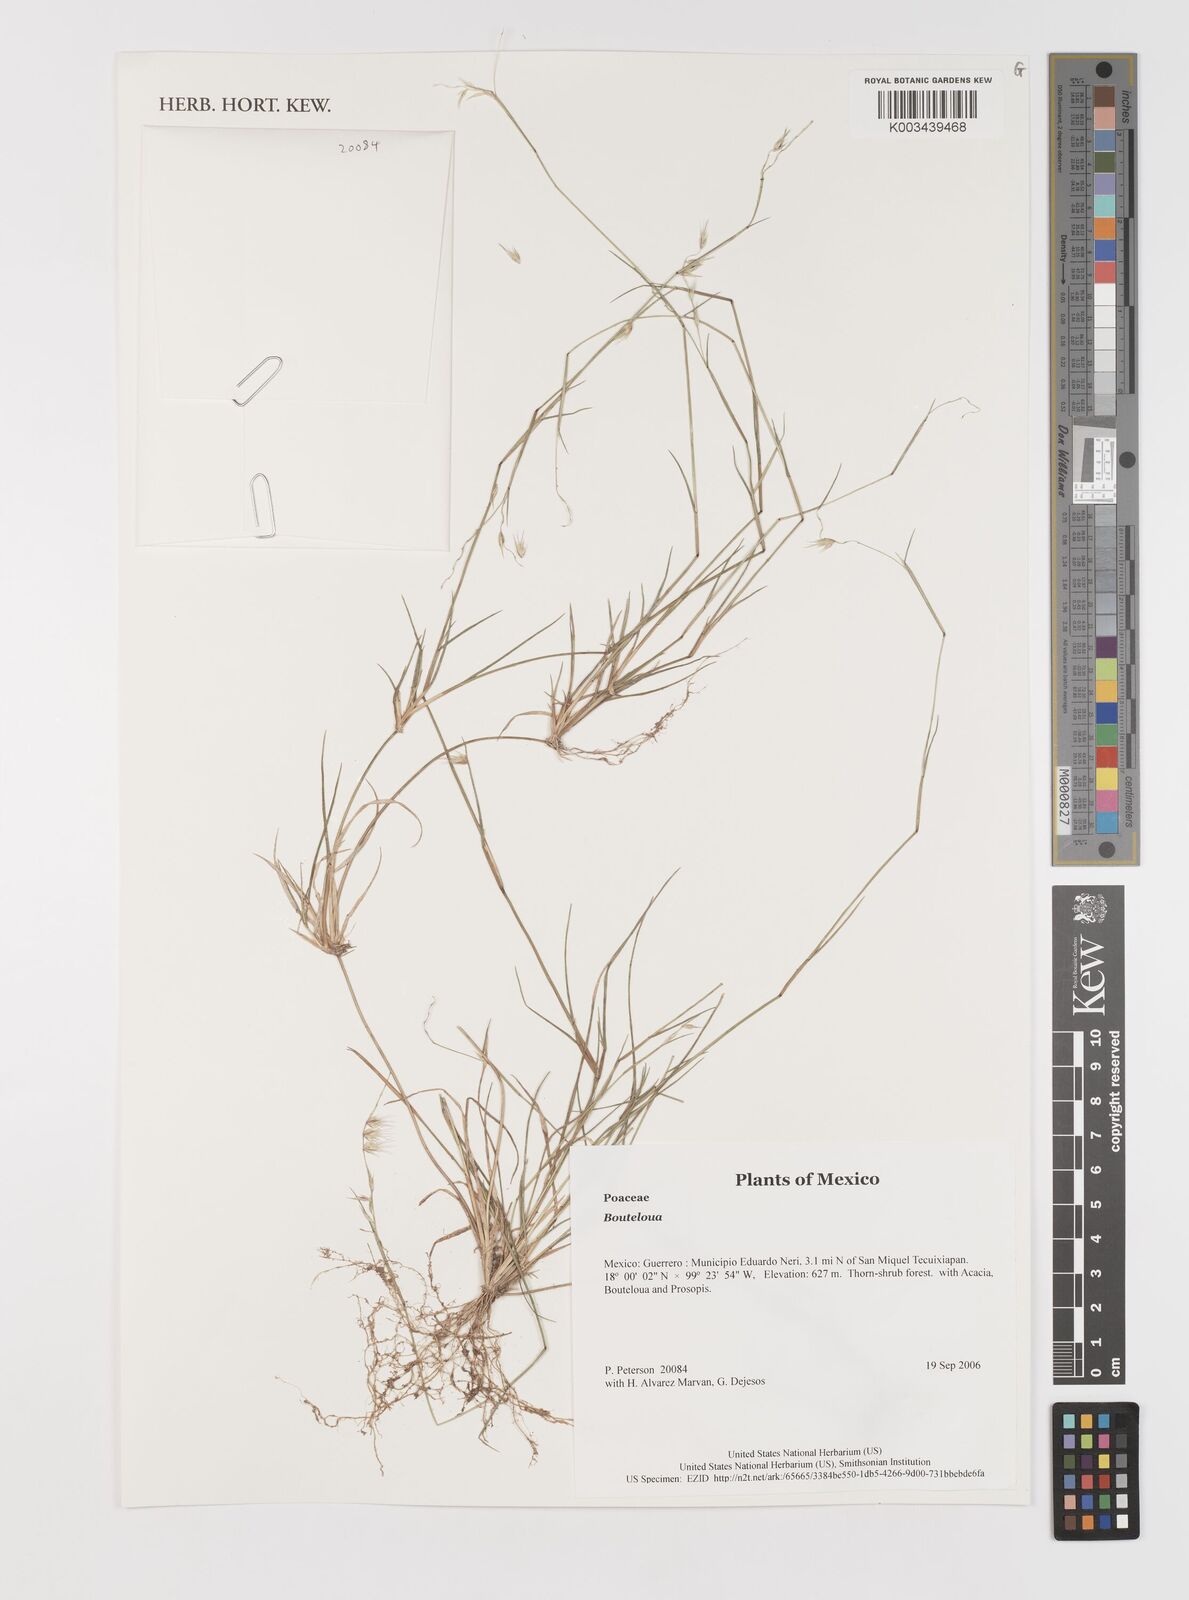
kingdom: Plantae
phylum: Tracheophyta
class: Liliopsida
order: Poales
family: Poaceae
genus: Bouteloua
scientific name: Bouteloua
